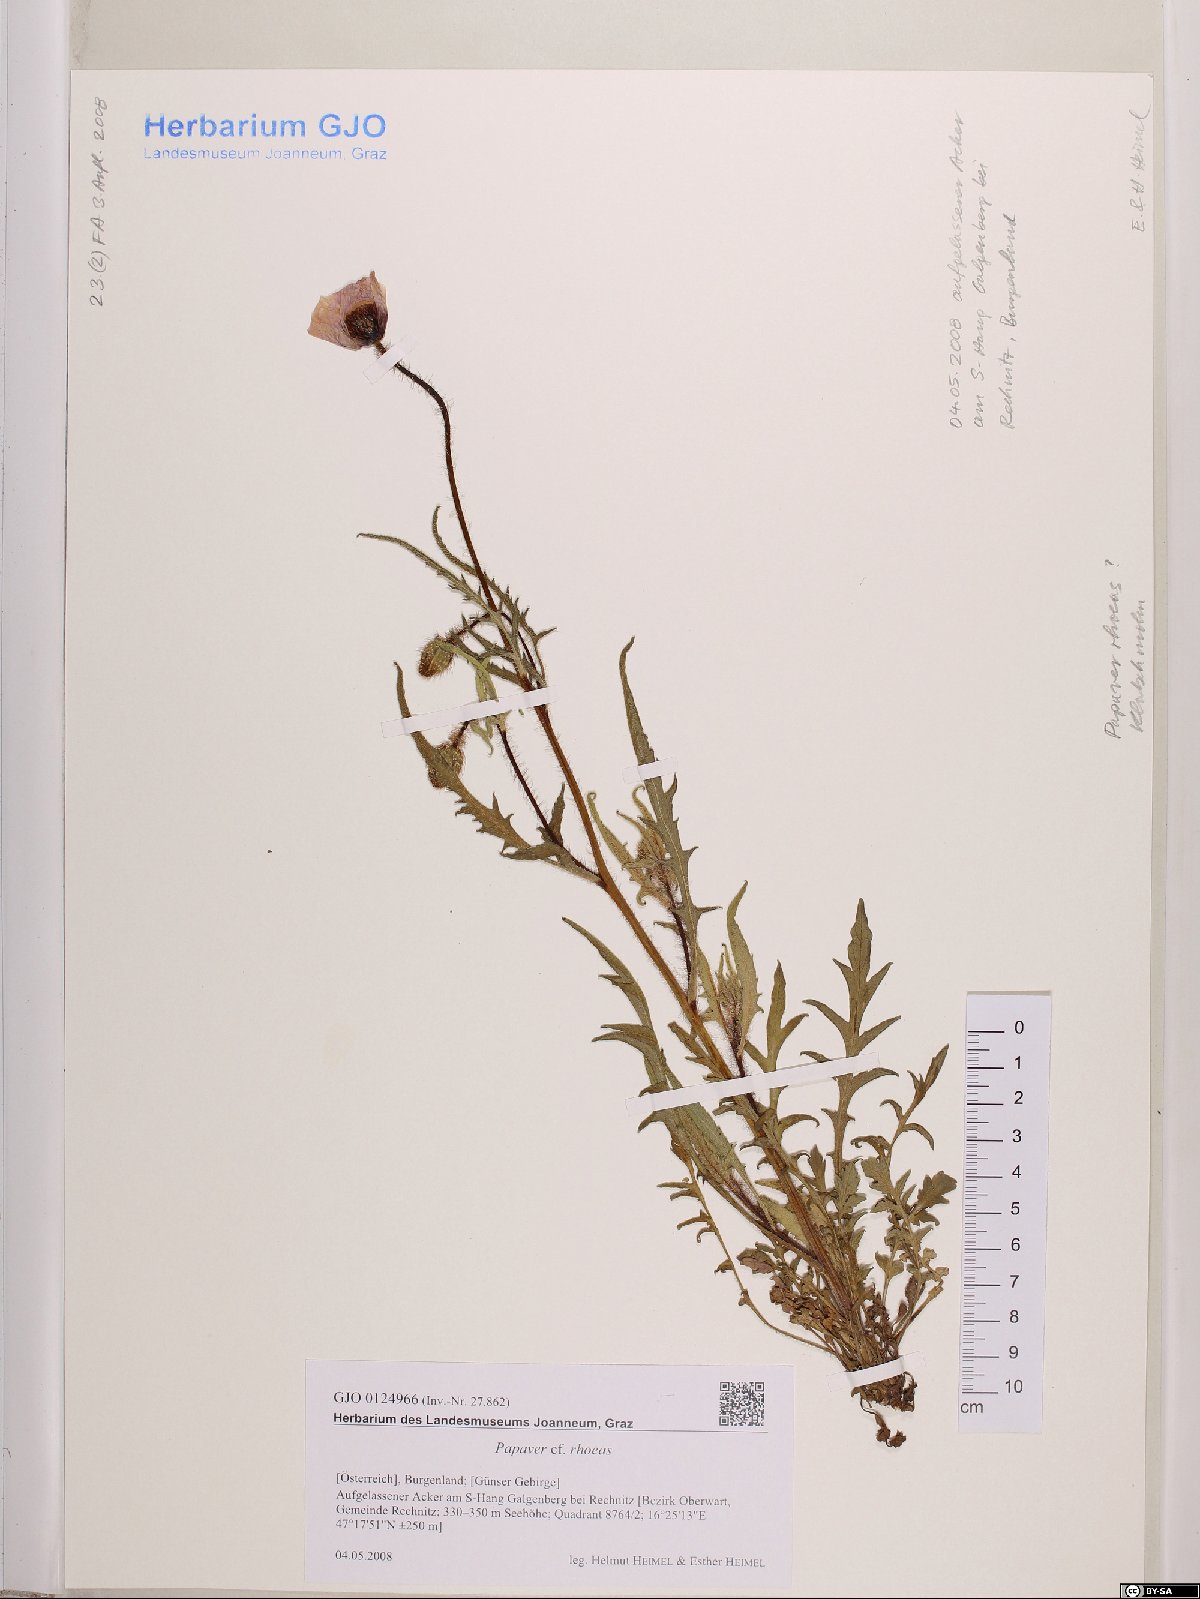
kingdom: Plantae
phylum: Tracheophyta
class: Magnoliopsida
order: Ranunculales
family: Papaveraceae
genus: Papaver
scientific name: Papaver rhoeas
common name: Corn poppy
